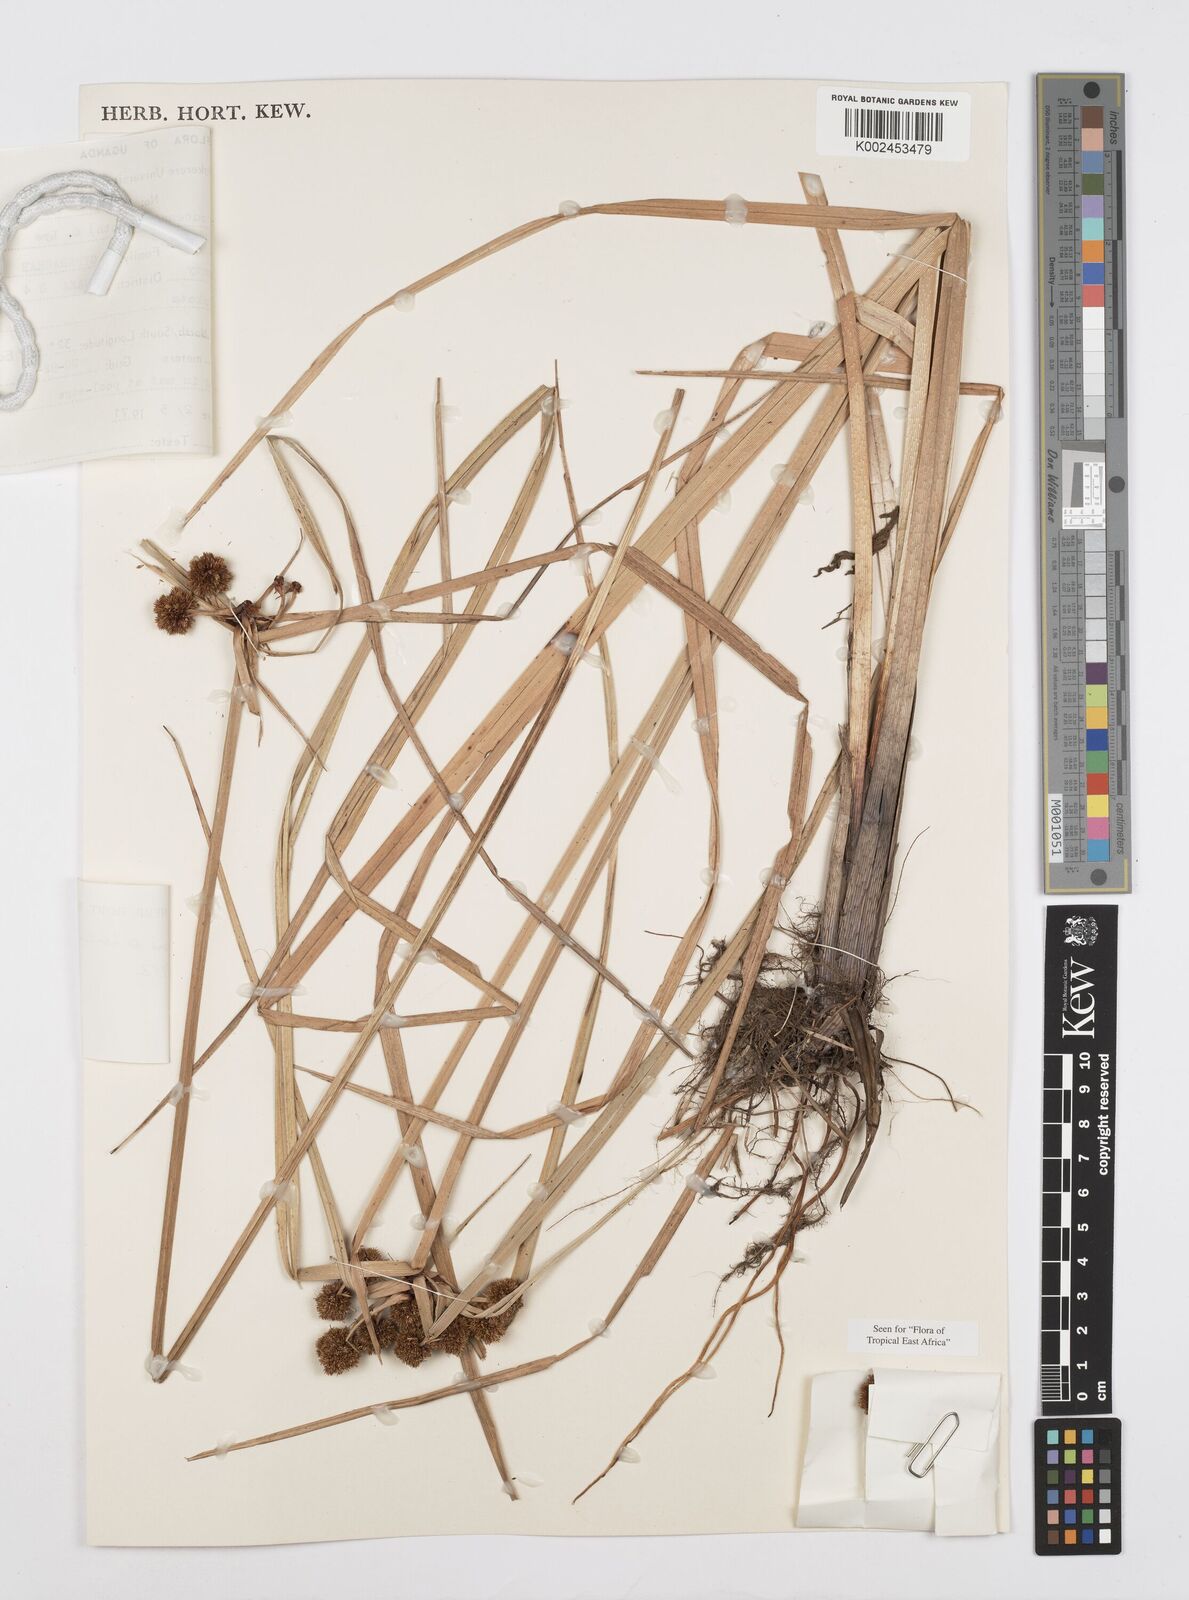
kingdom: Plantae
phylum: Tracheophyta
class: Liliopsida
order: Poales
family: Cyperaceae
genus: Cyperus
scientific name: Cyperus elegans
